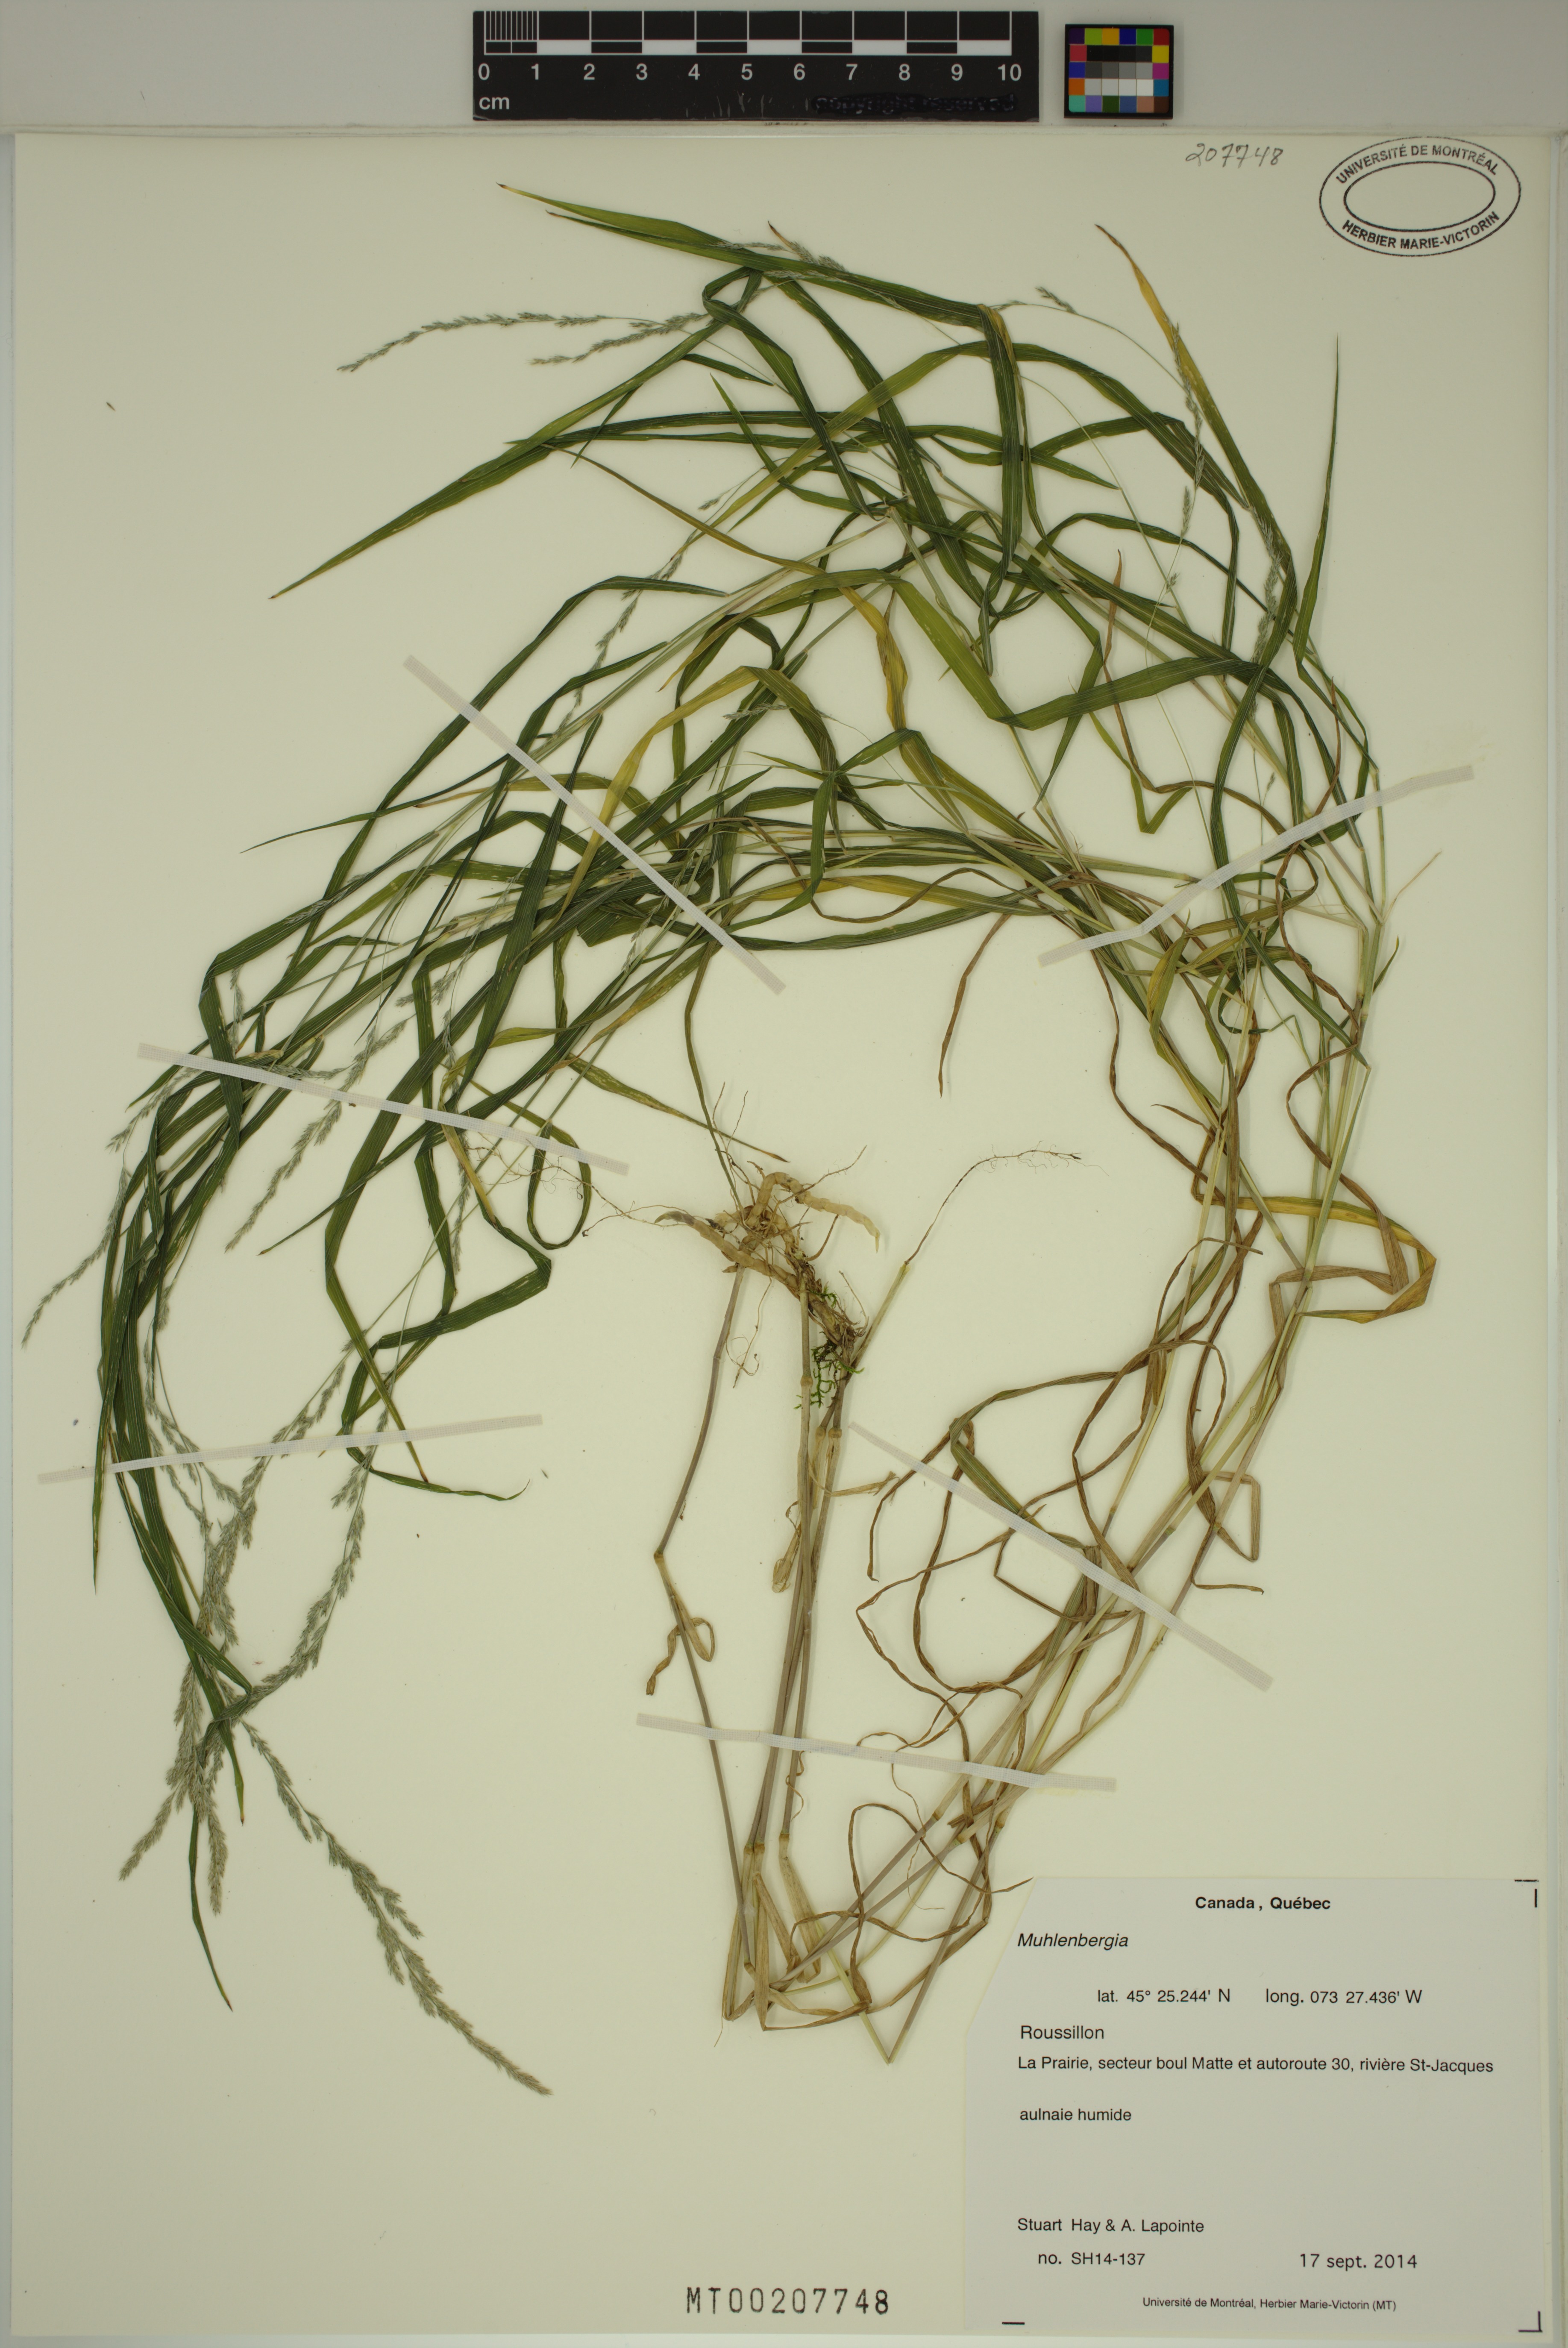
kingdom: Plantae
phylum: Tracheophyta
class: Liliopsida
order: Poales
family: Poaceae
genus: Muhlenbergia
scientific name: Muhlenbergia
